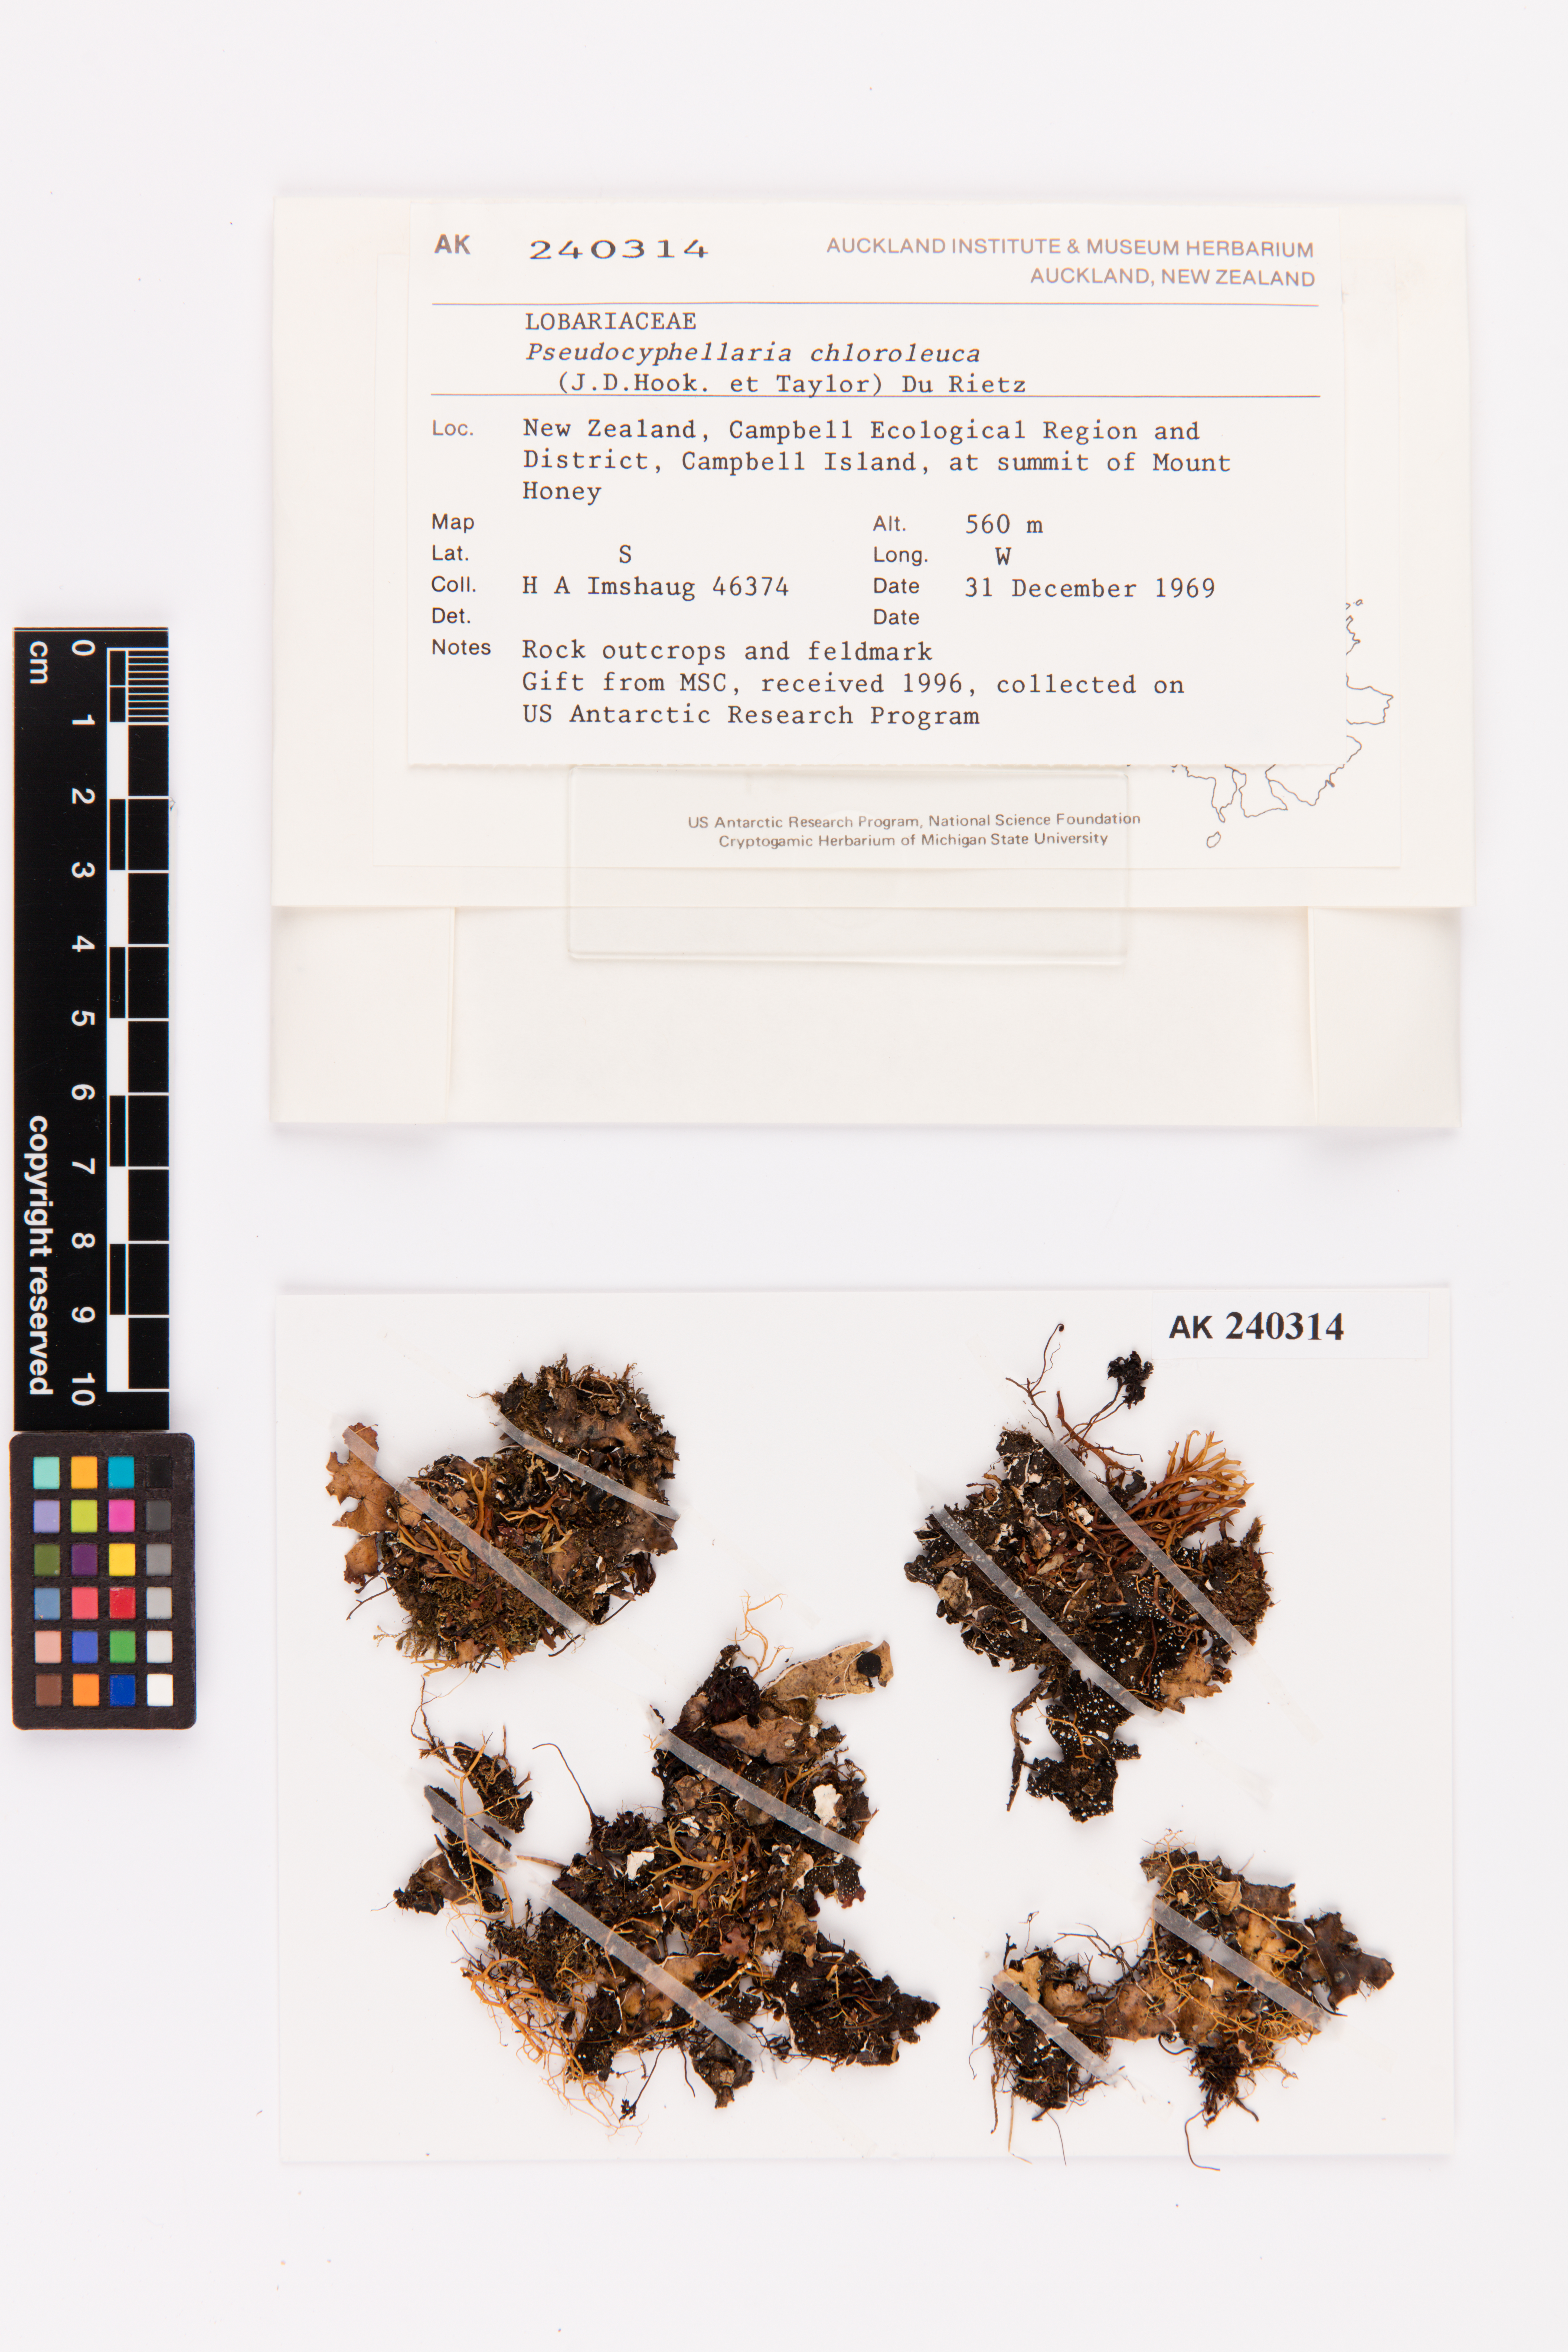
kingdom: Fungi
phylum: Ascomycota
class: Lecanoromycetes
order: Peltigerales
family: Lobariaceae
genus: Pseudocyphellaria
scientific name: Pseudocyphellaria chloroleuca
